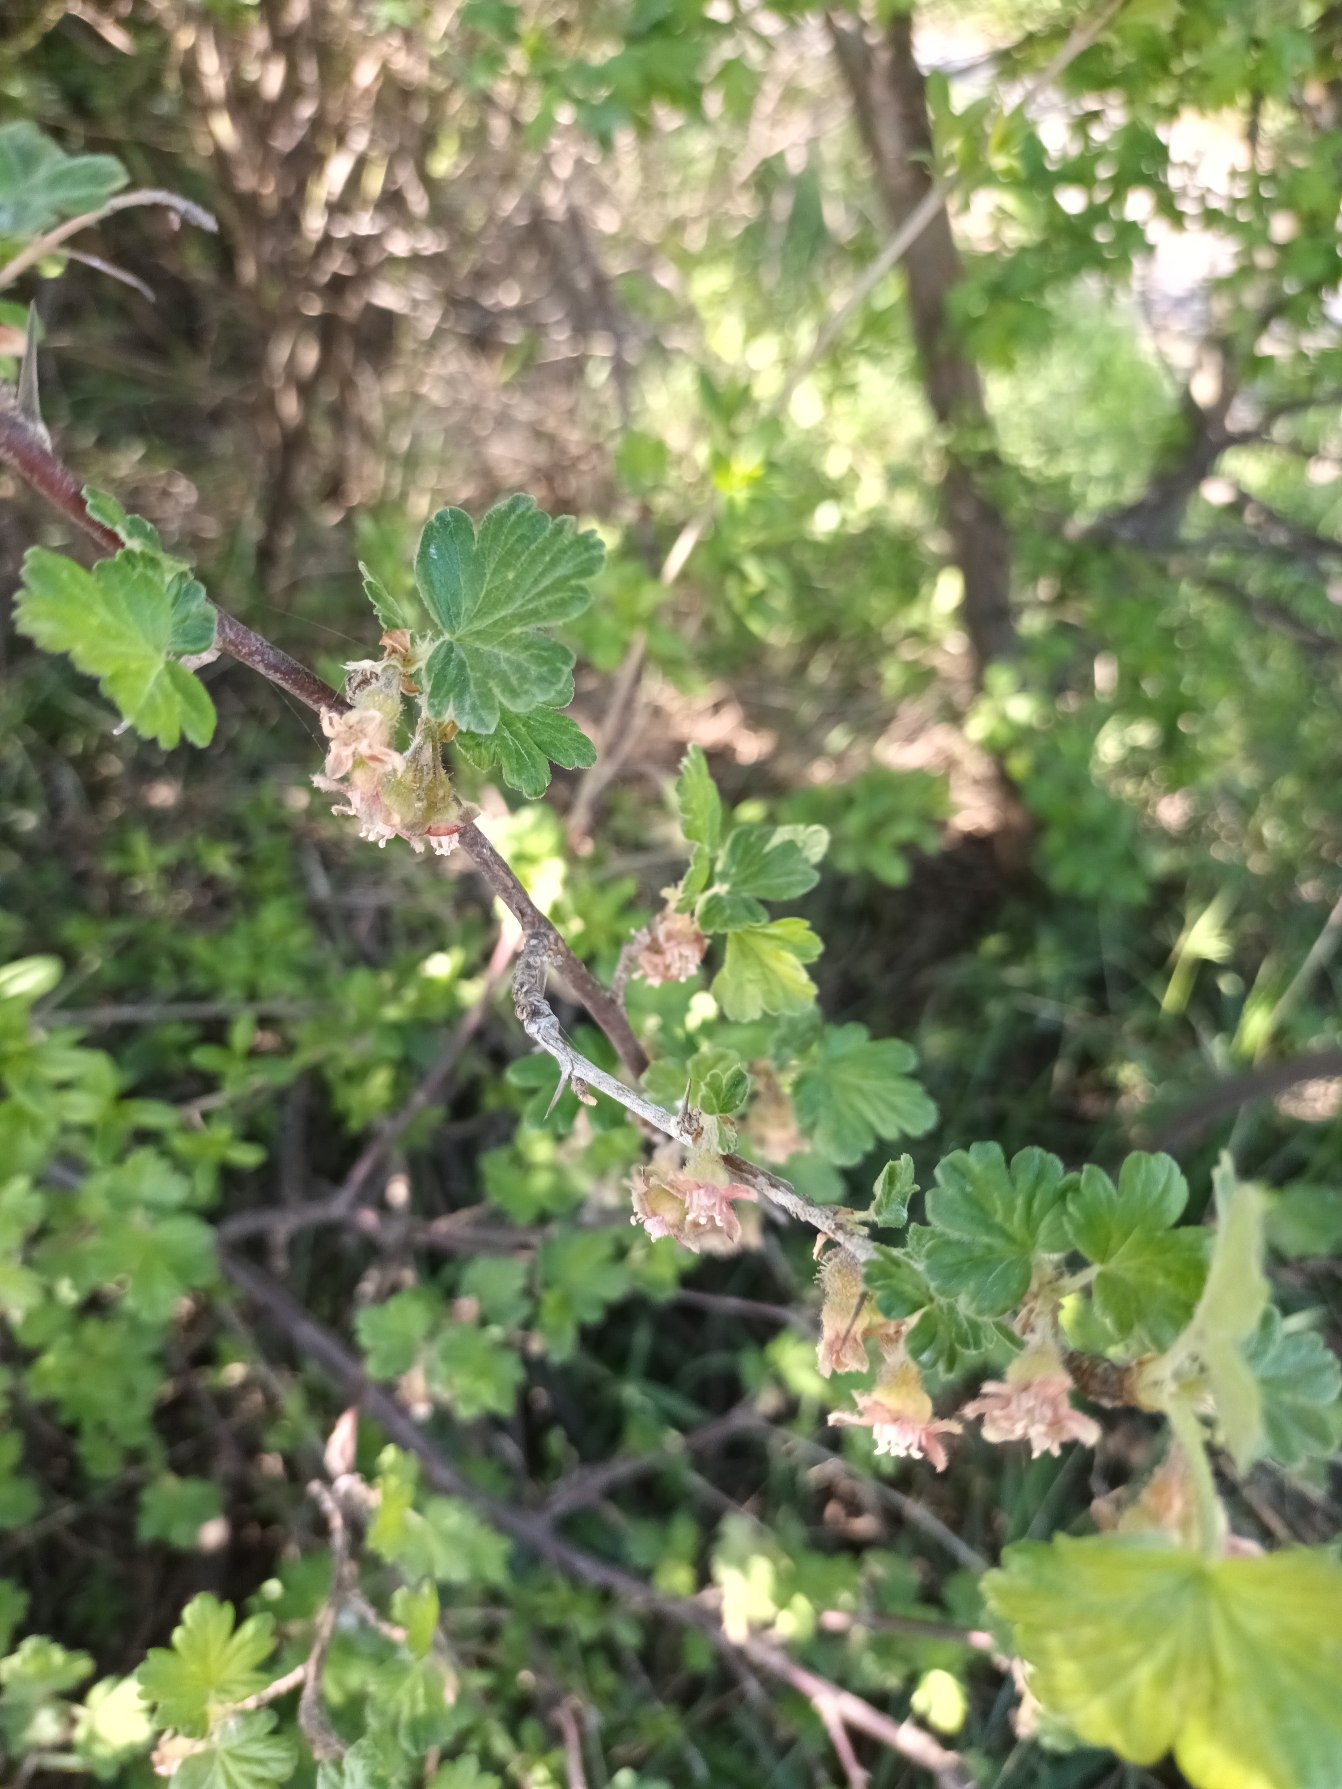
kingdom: Plantae
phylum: Tracheophyta
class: Magnoliopsida
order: Saxifragales
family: Grossulariaceae
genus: Ribes
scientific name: Ribes uva-crispa
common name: Stikkelsbær
